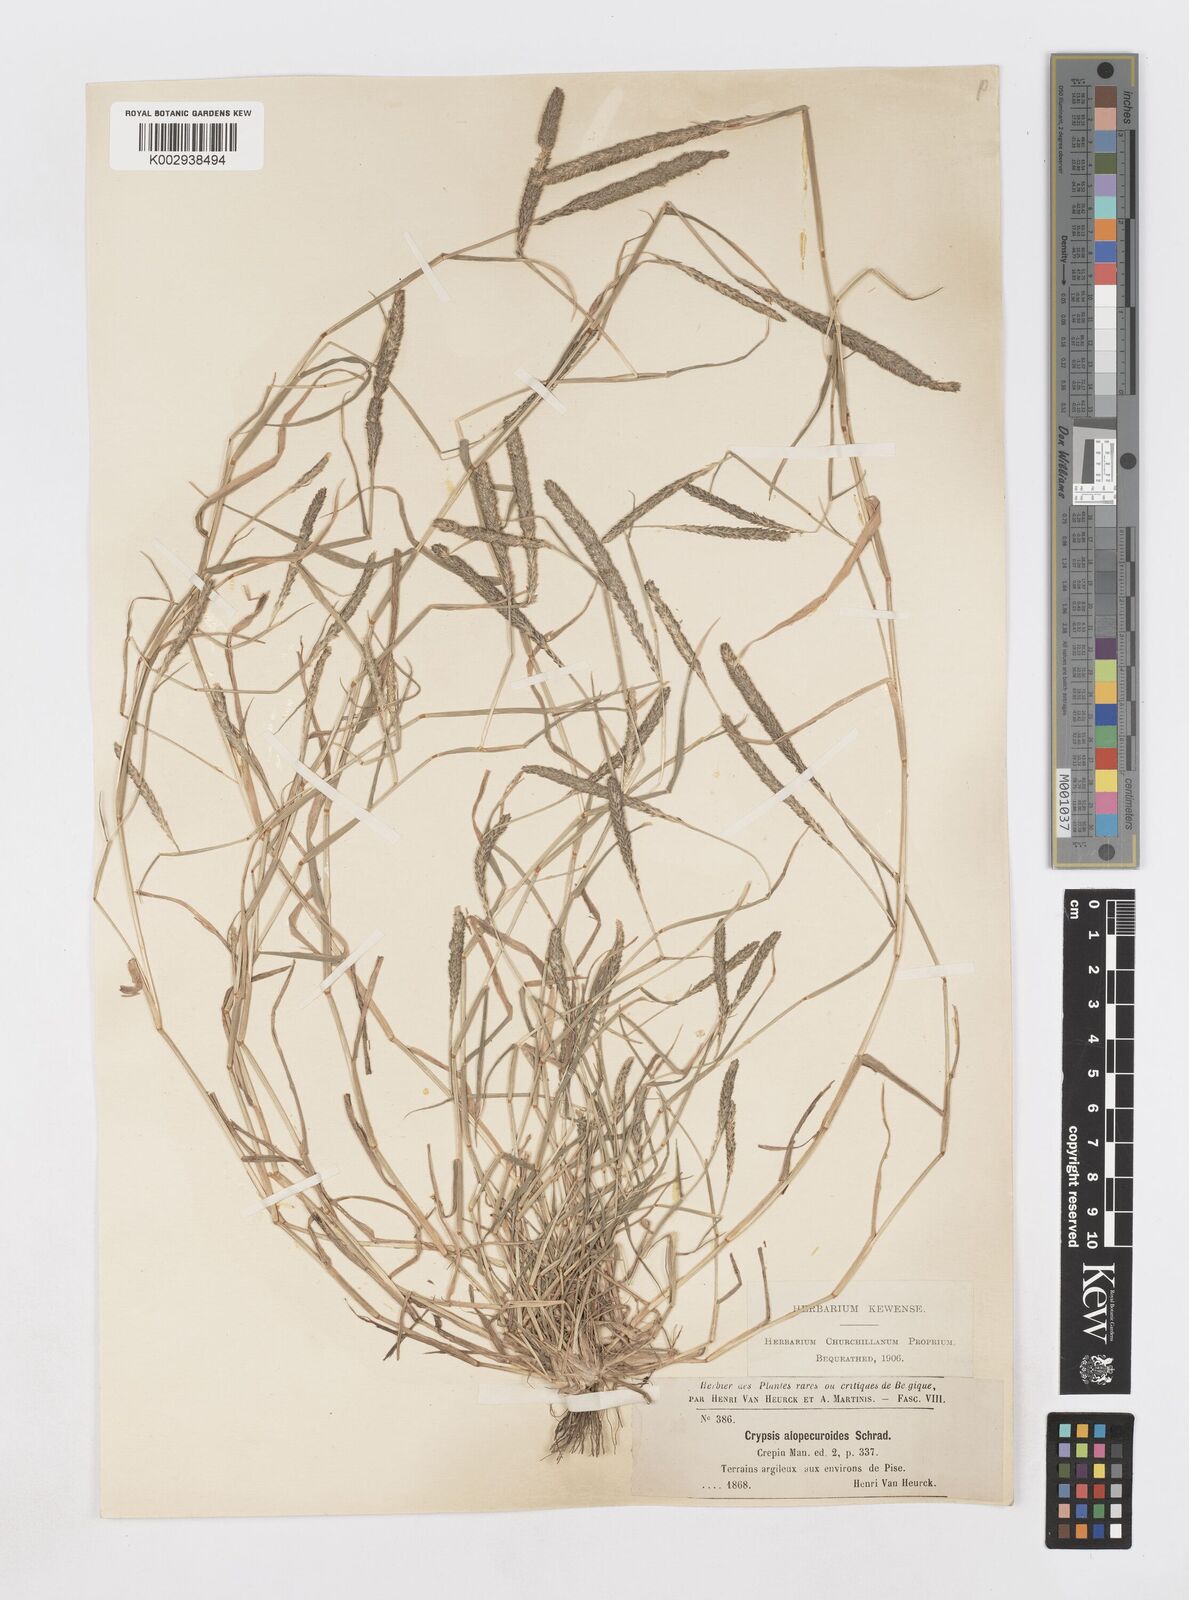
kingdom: Plantae
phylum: Tracheophyta
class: Liliopsida
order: Poales
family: Poaceae
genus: Sporobolus
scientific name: Sporobolus alopecuroides
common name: Foxtail pricklegrass
